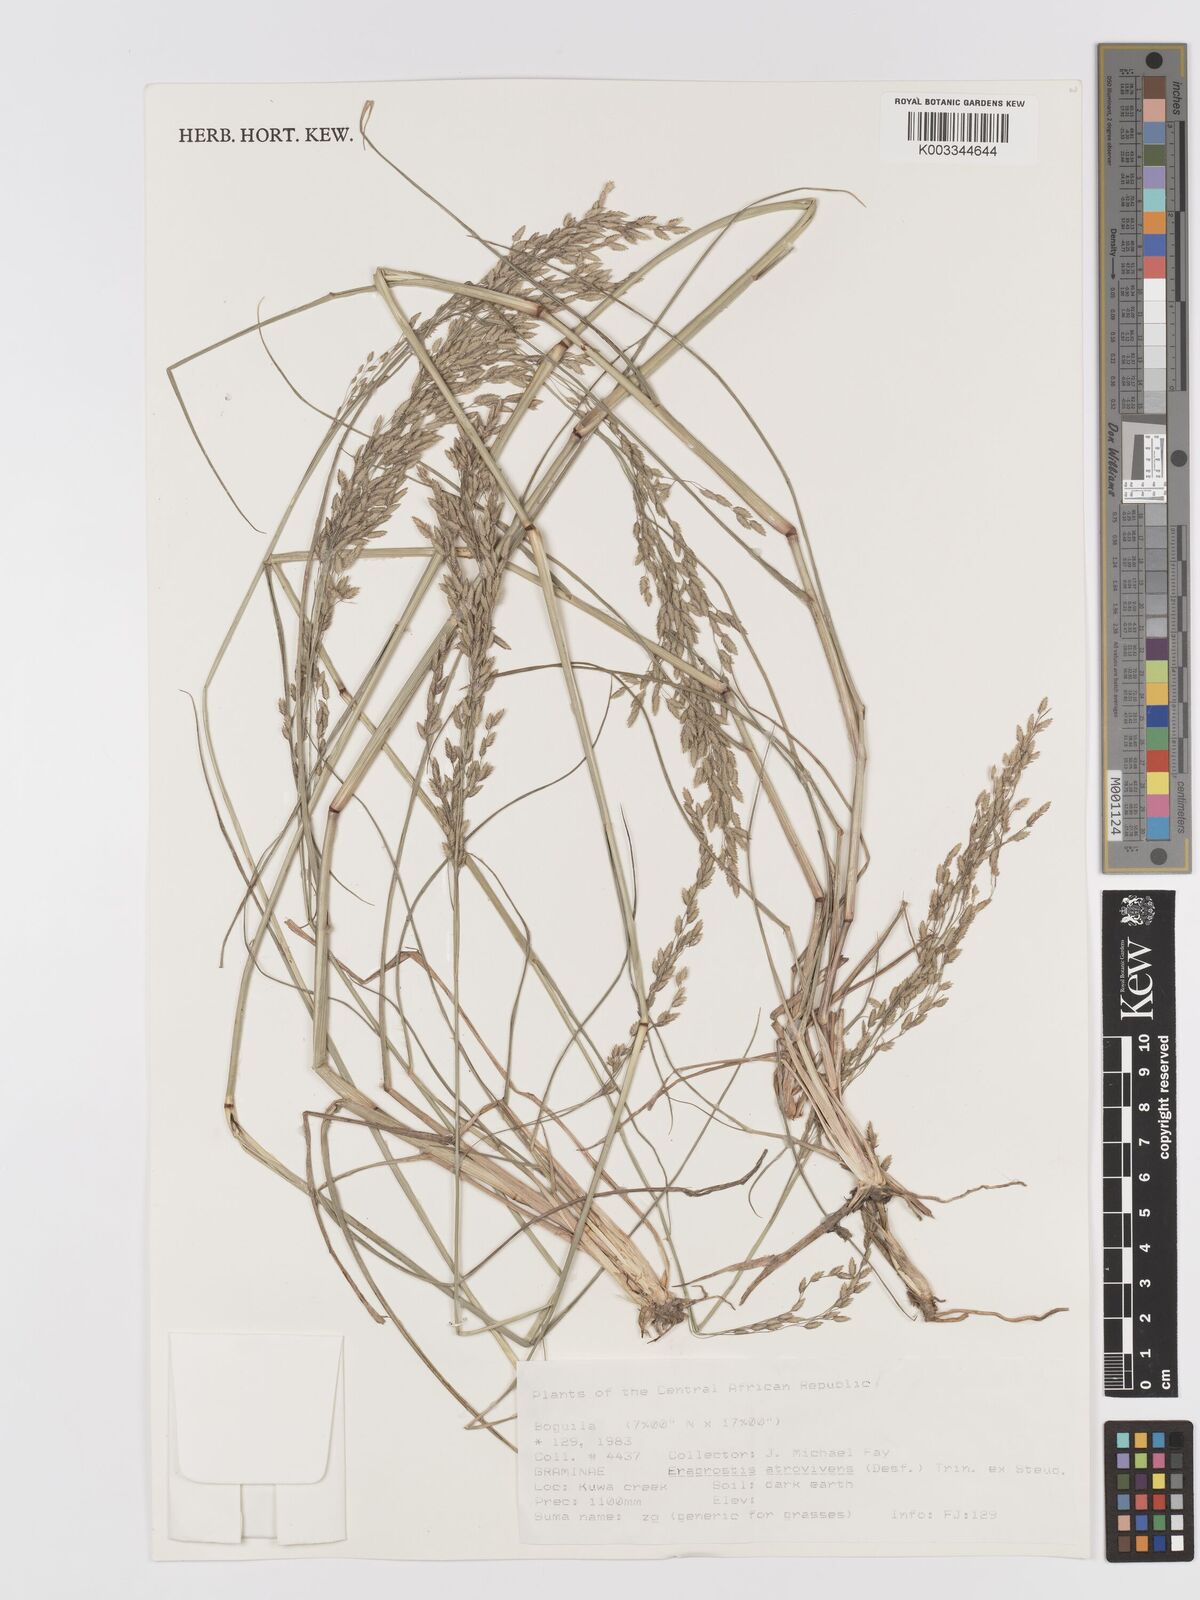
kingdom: Plantae
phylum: Tracheophyta
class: Liliopsida
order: Poales
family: Poaceae
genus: Eragrostis
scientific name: Eragrostis atrovirens
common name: Thalia lovegrass
